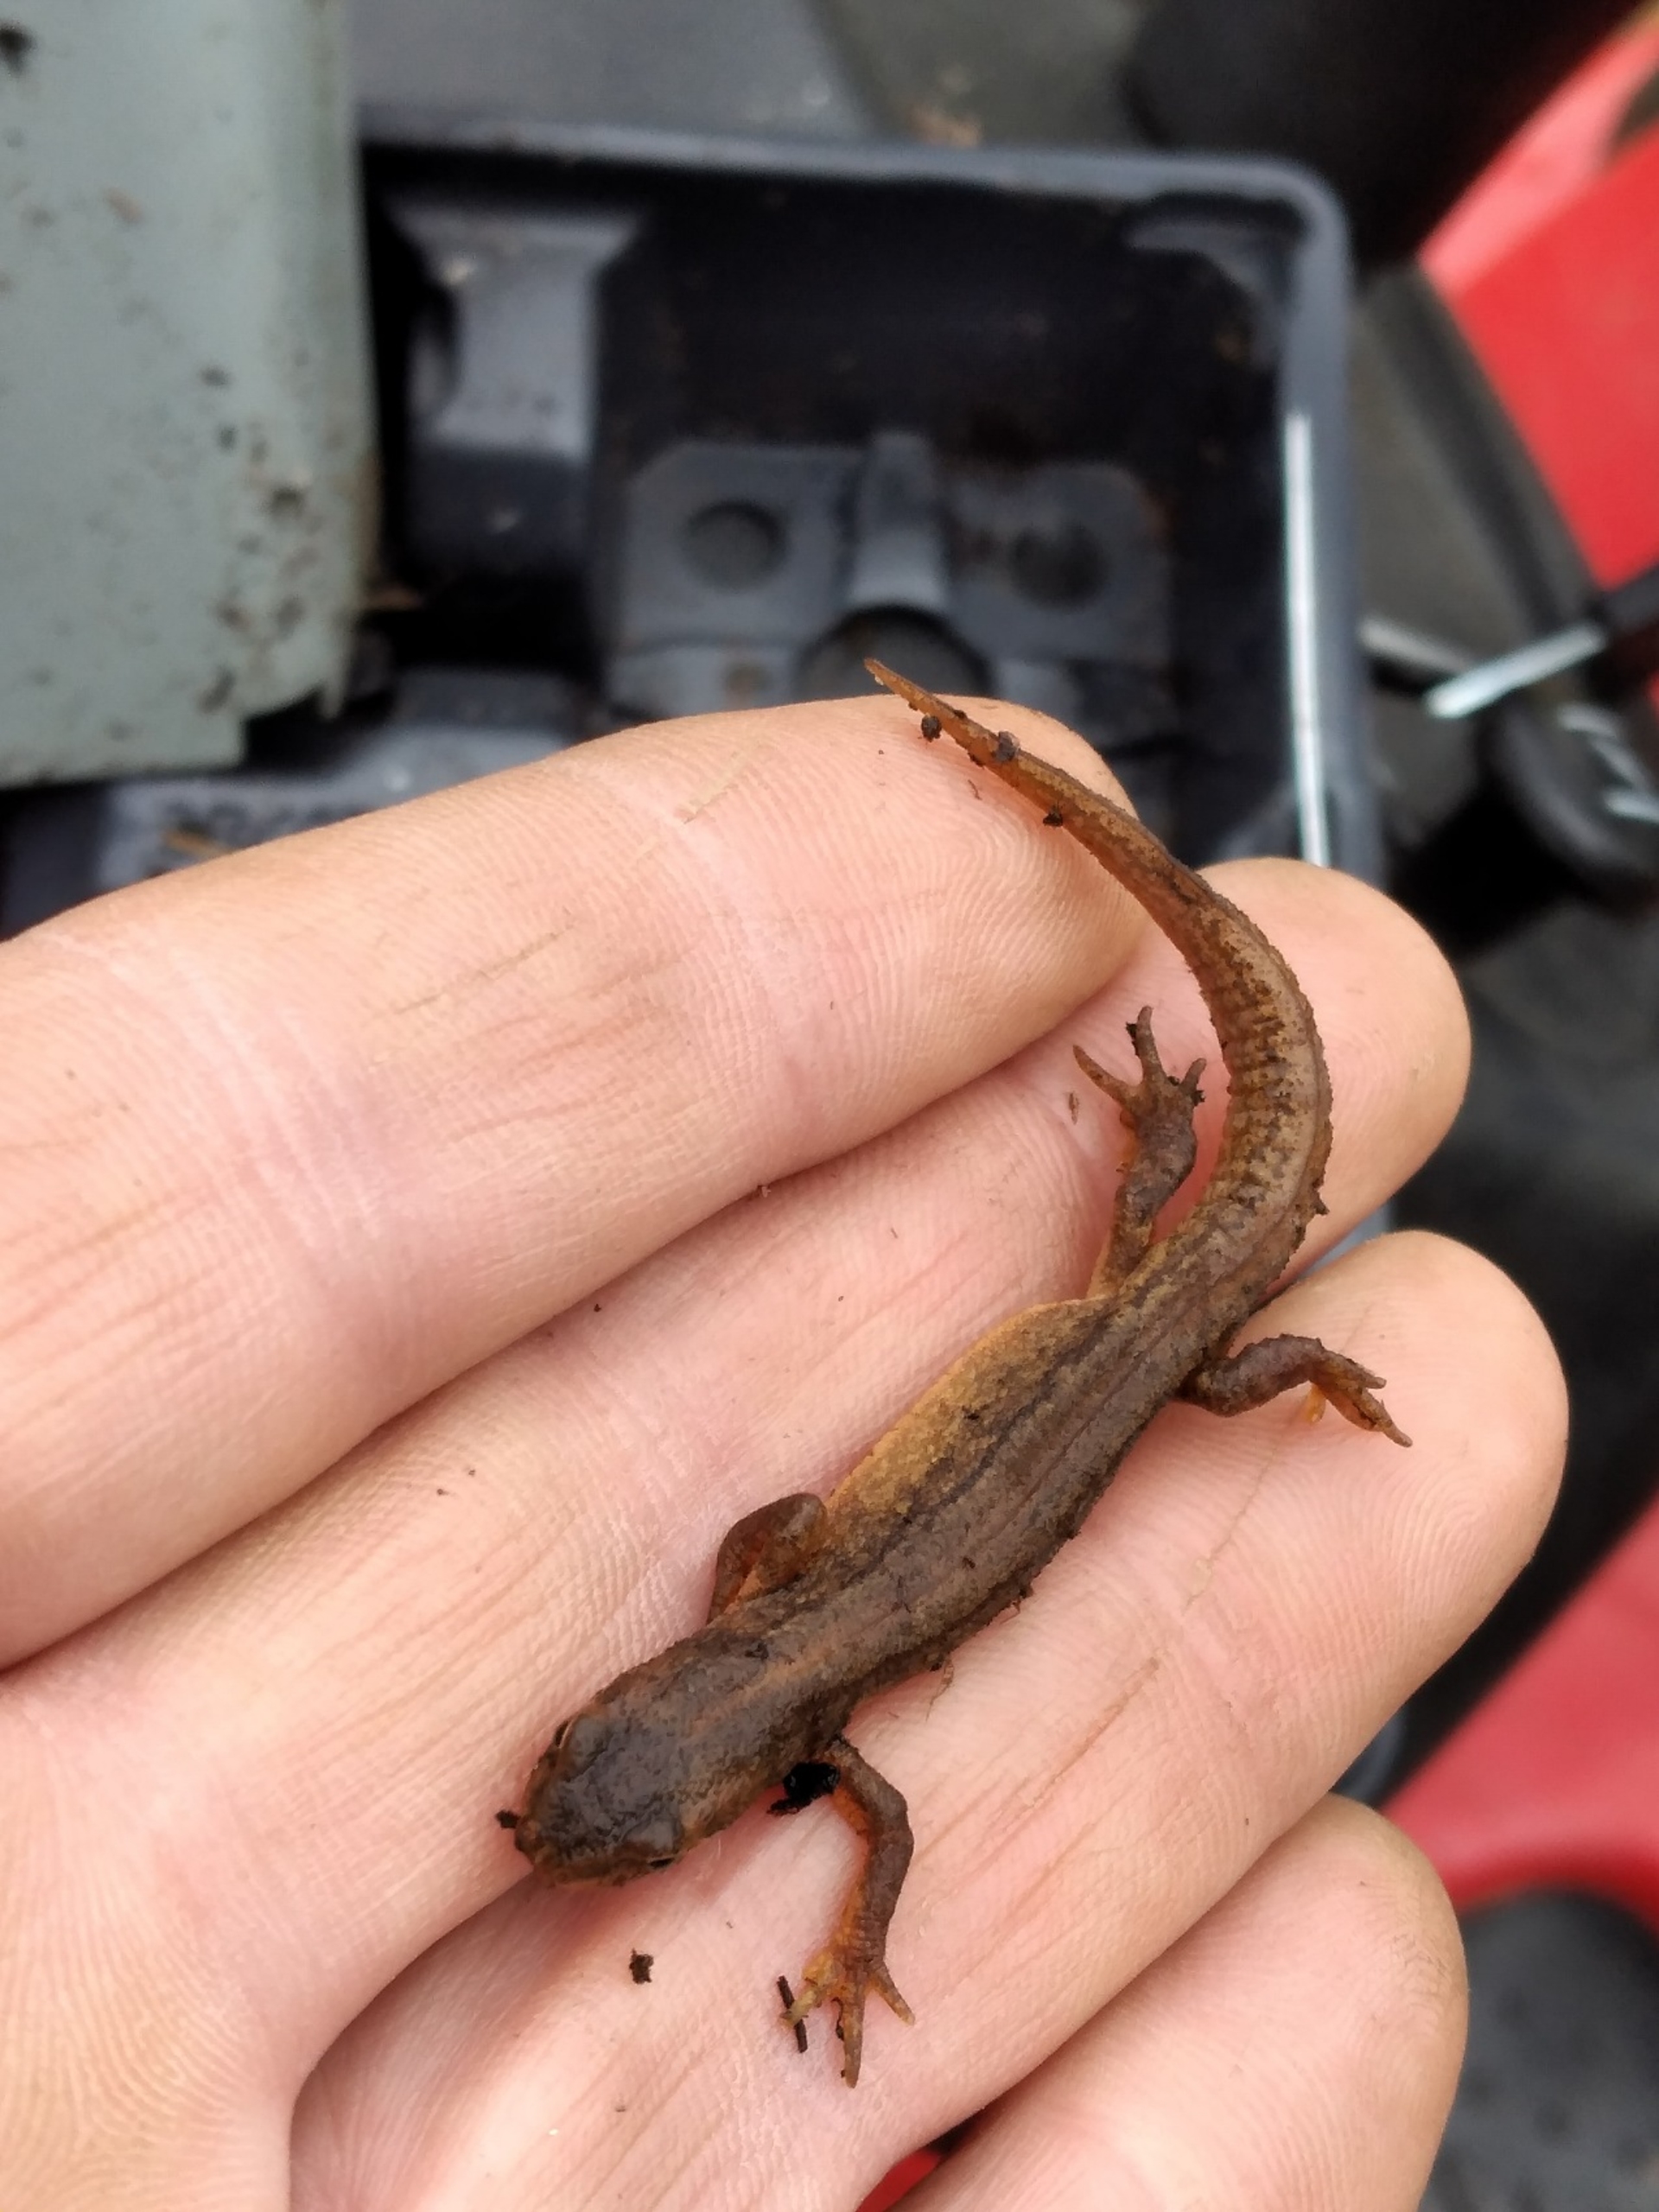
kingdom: Animalia
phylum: Chordata
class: Amphibia
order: Caudata
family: Salamandridae
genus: Lissotriton
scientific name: Lissotriton vulgaris
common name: Lille vandsalamander
